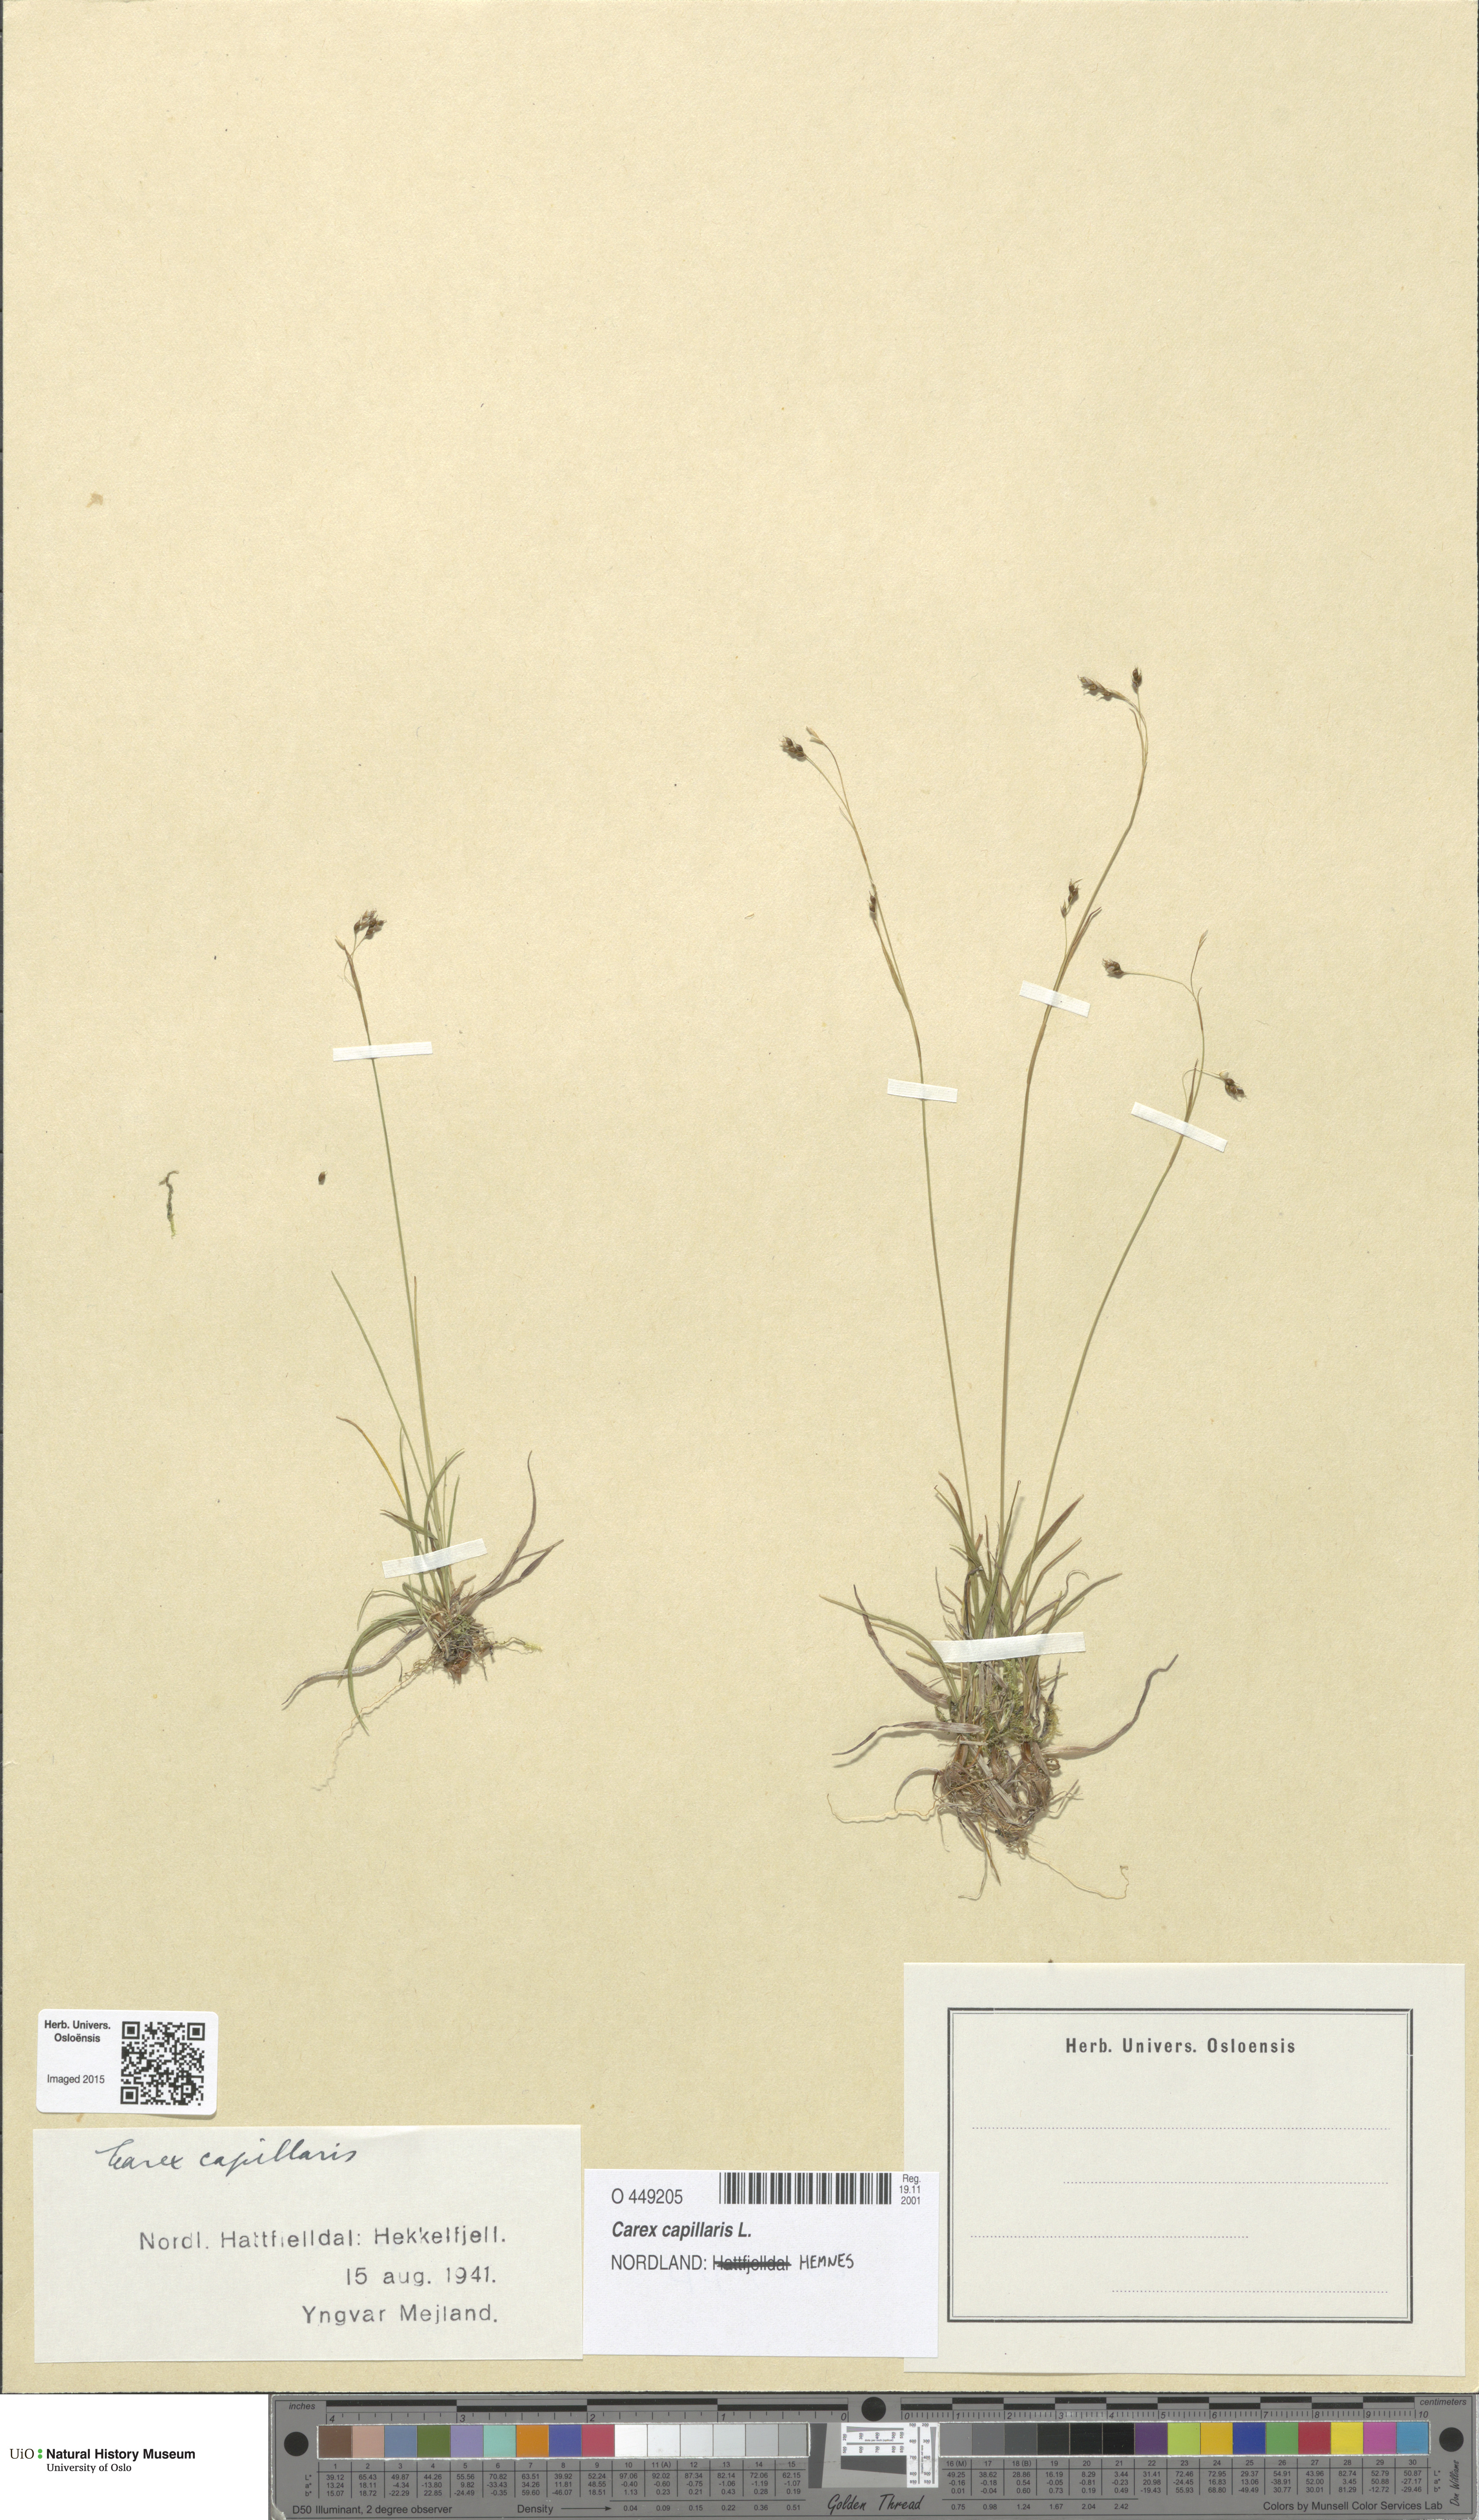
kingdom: Plantae
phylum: Tracheophyta
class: Liliopsida
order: Poales
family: Cyperaceae
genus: Carex
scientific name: Carex capillaris
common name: Hair sedge
